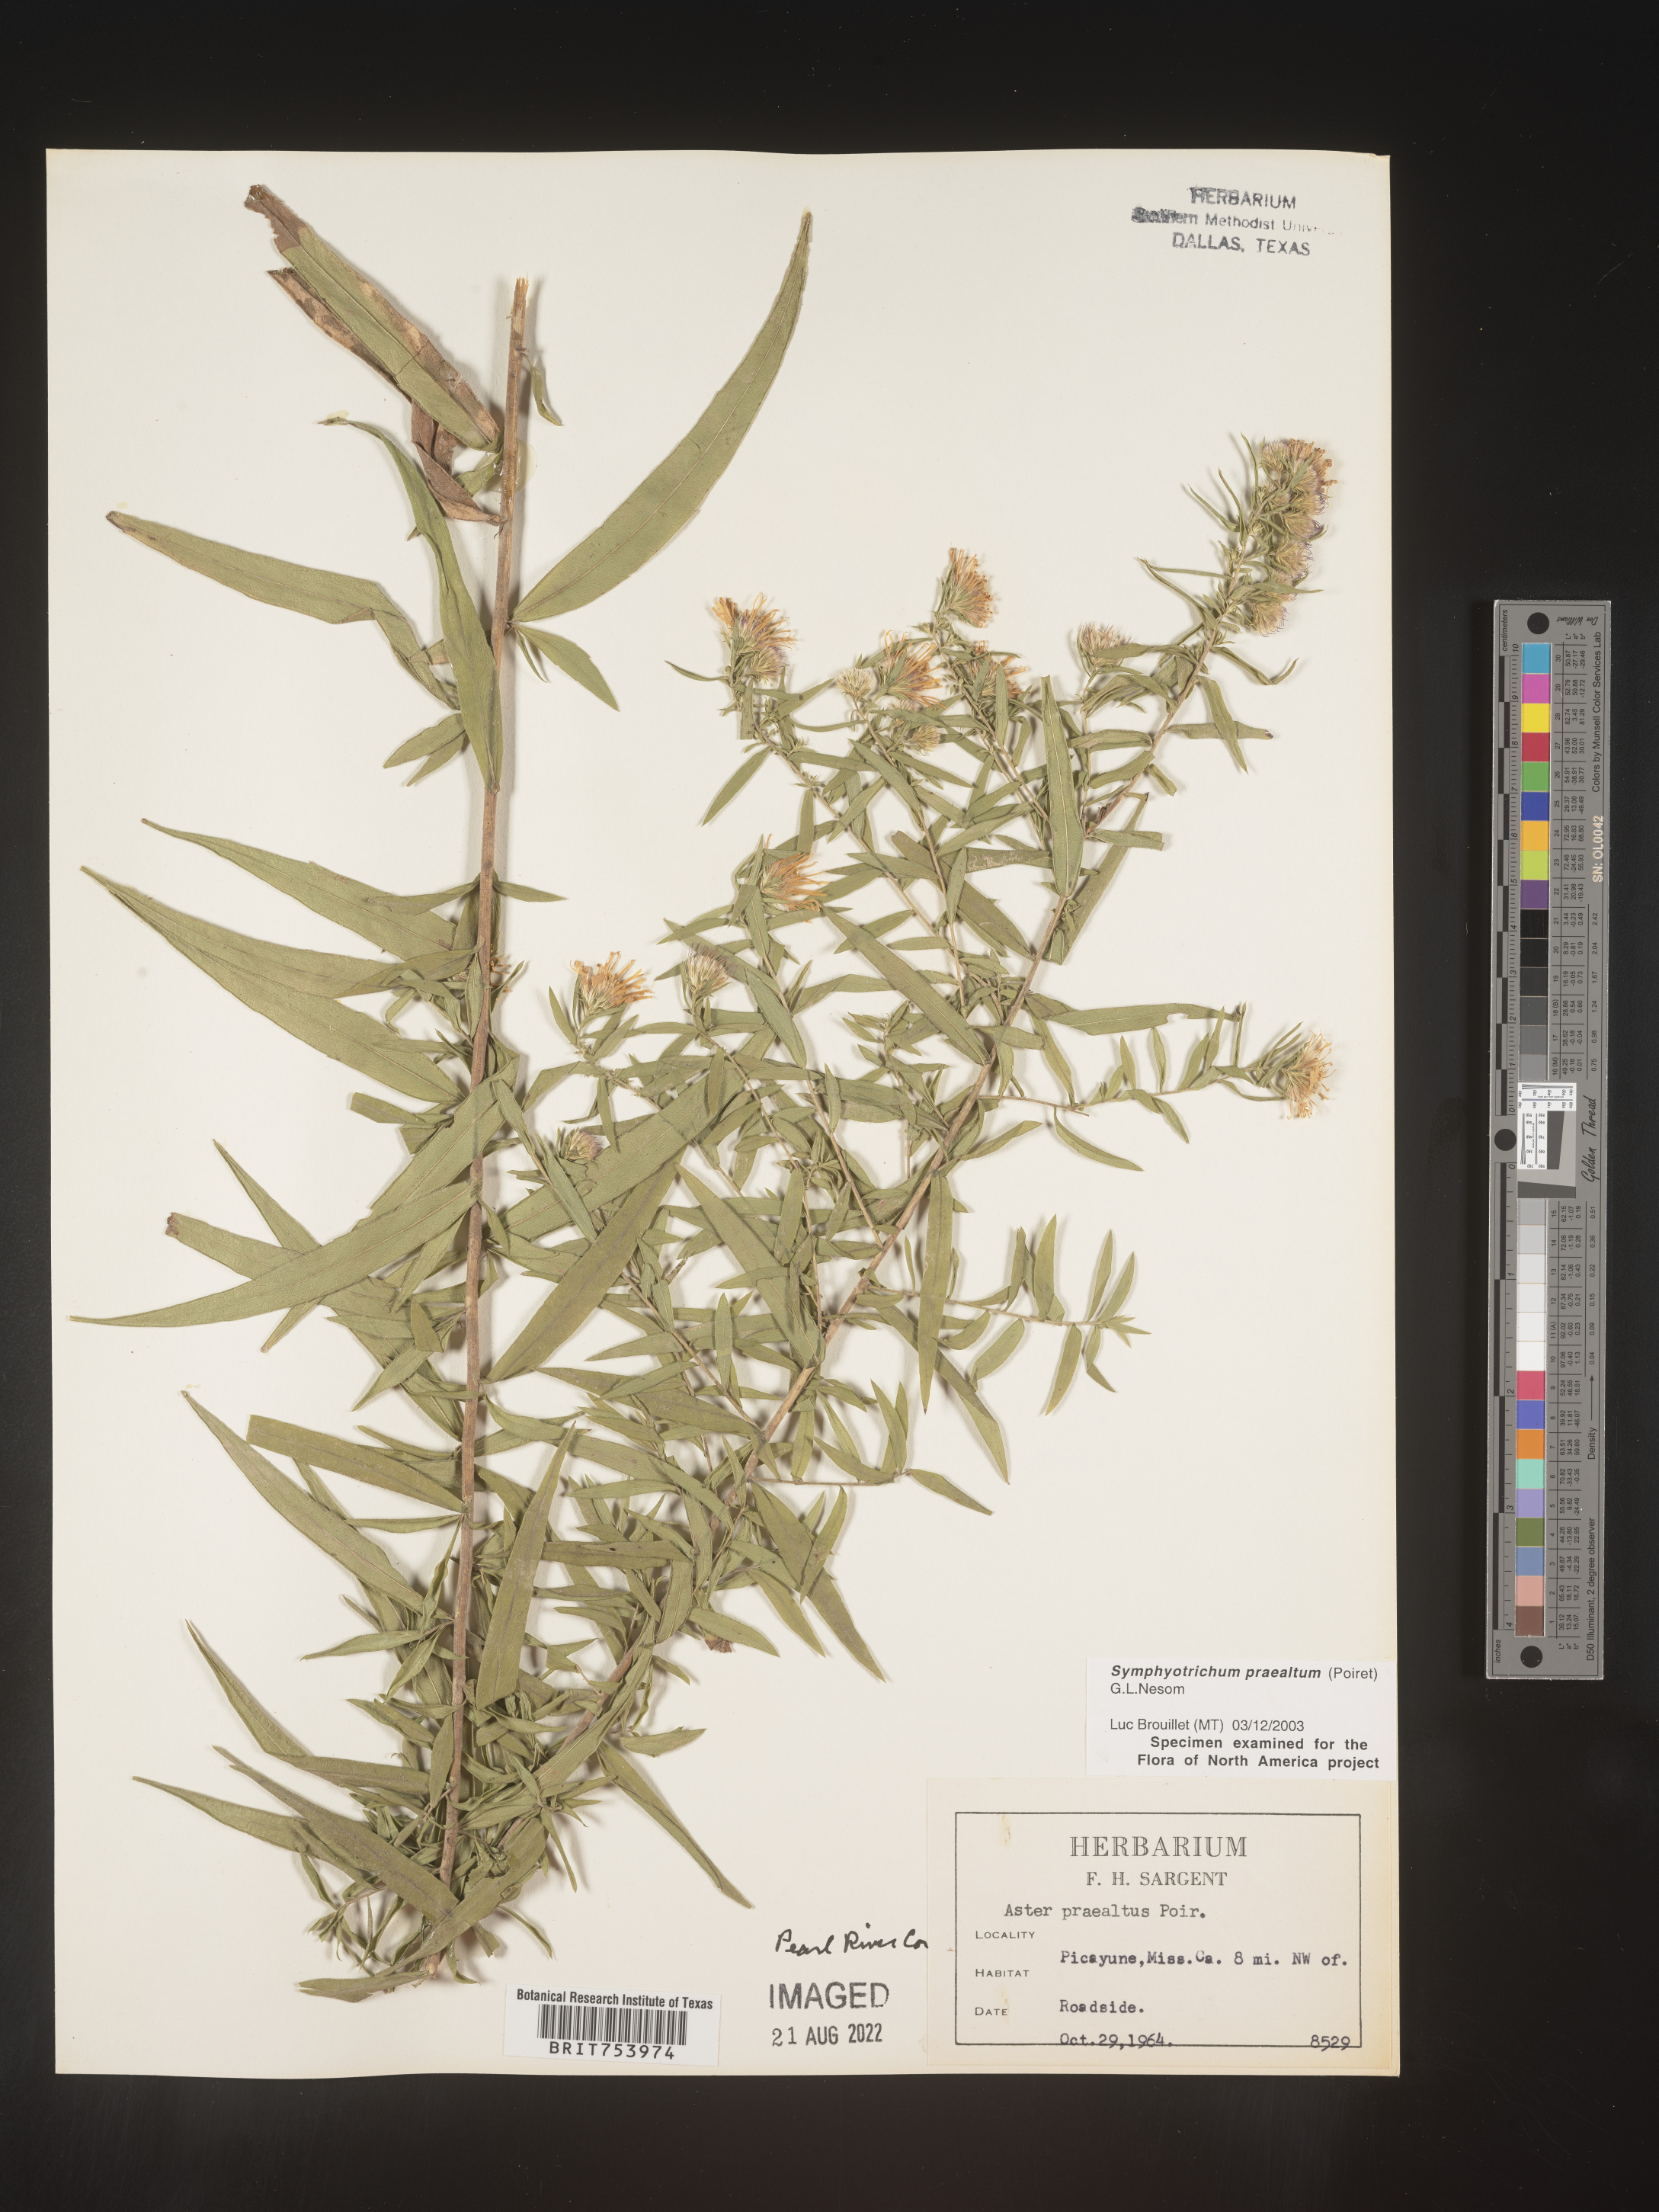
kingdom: Plantae
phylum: Tracheophyta
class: Magnoliopsida
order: Asterales
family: Asteraceae
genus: Symphyotrichum
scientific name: Symphyotrichum praealtum
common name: Willow aster
